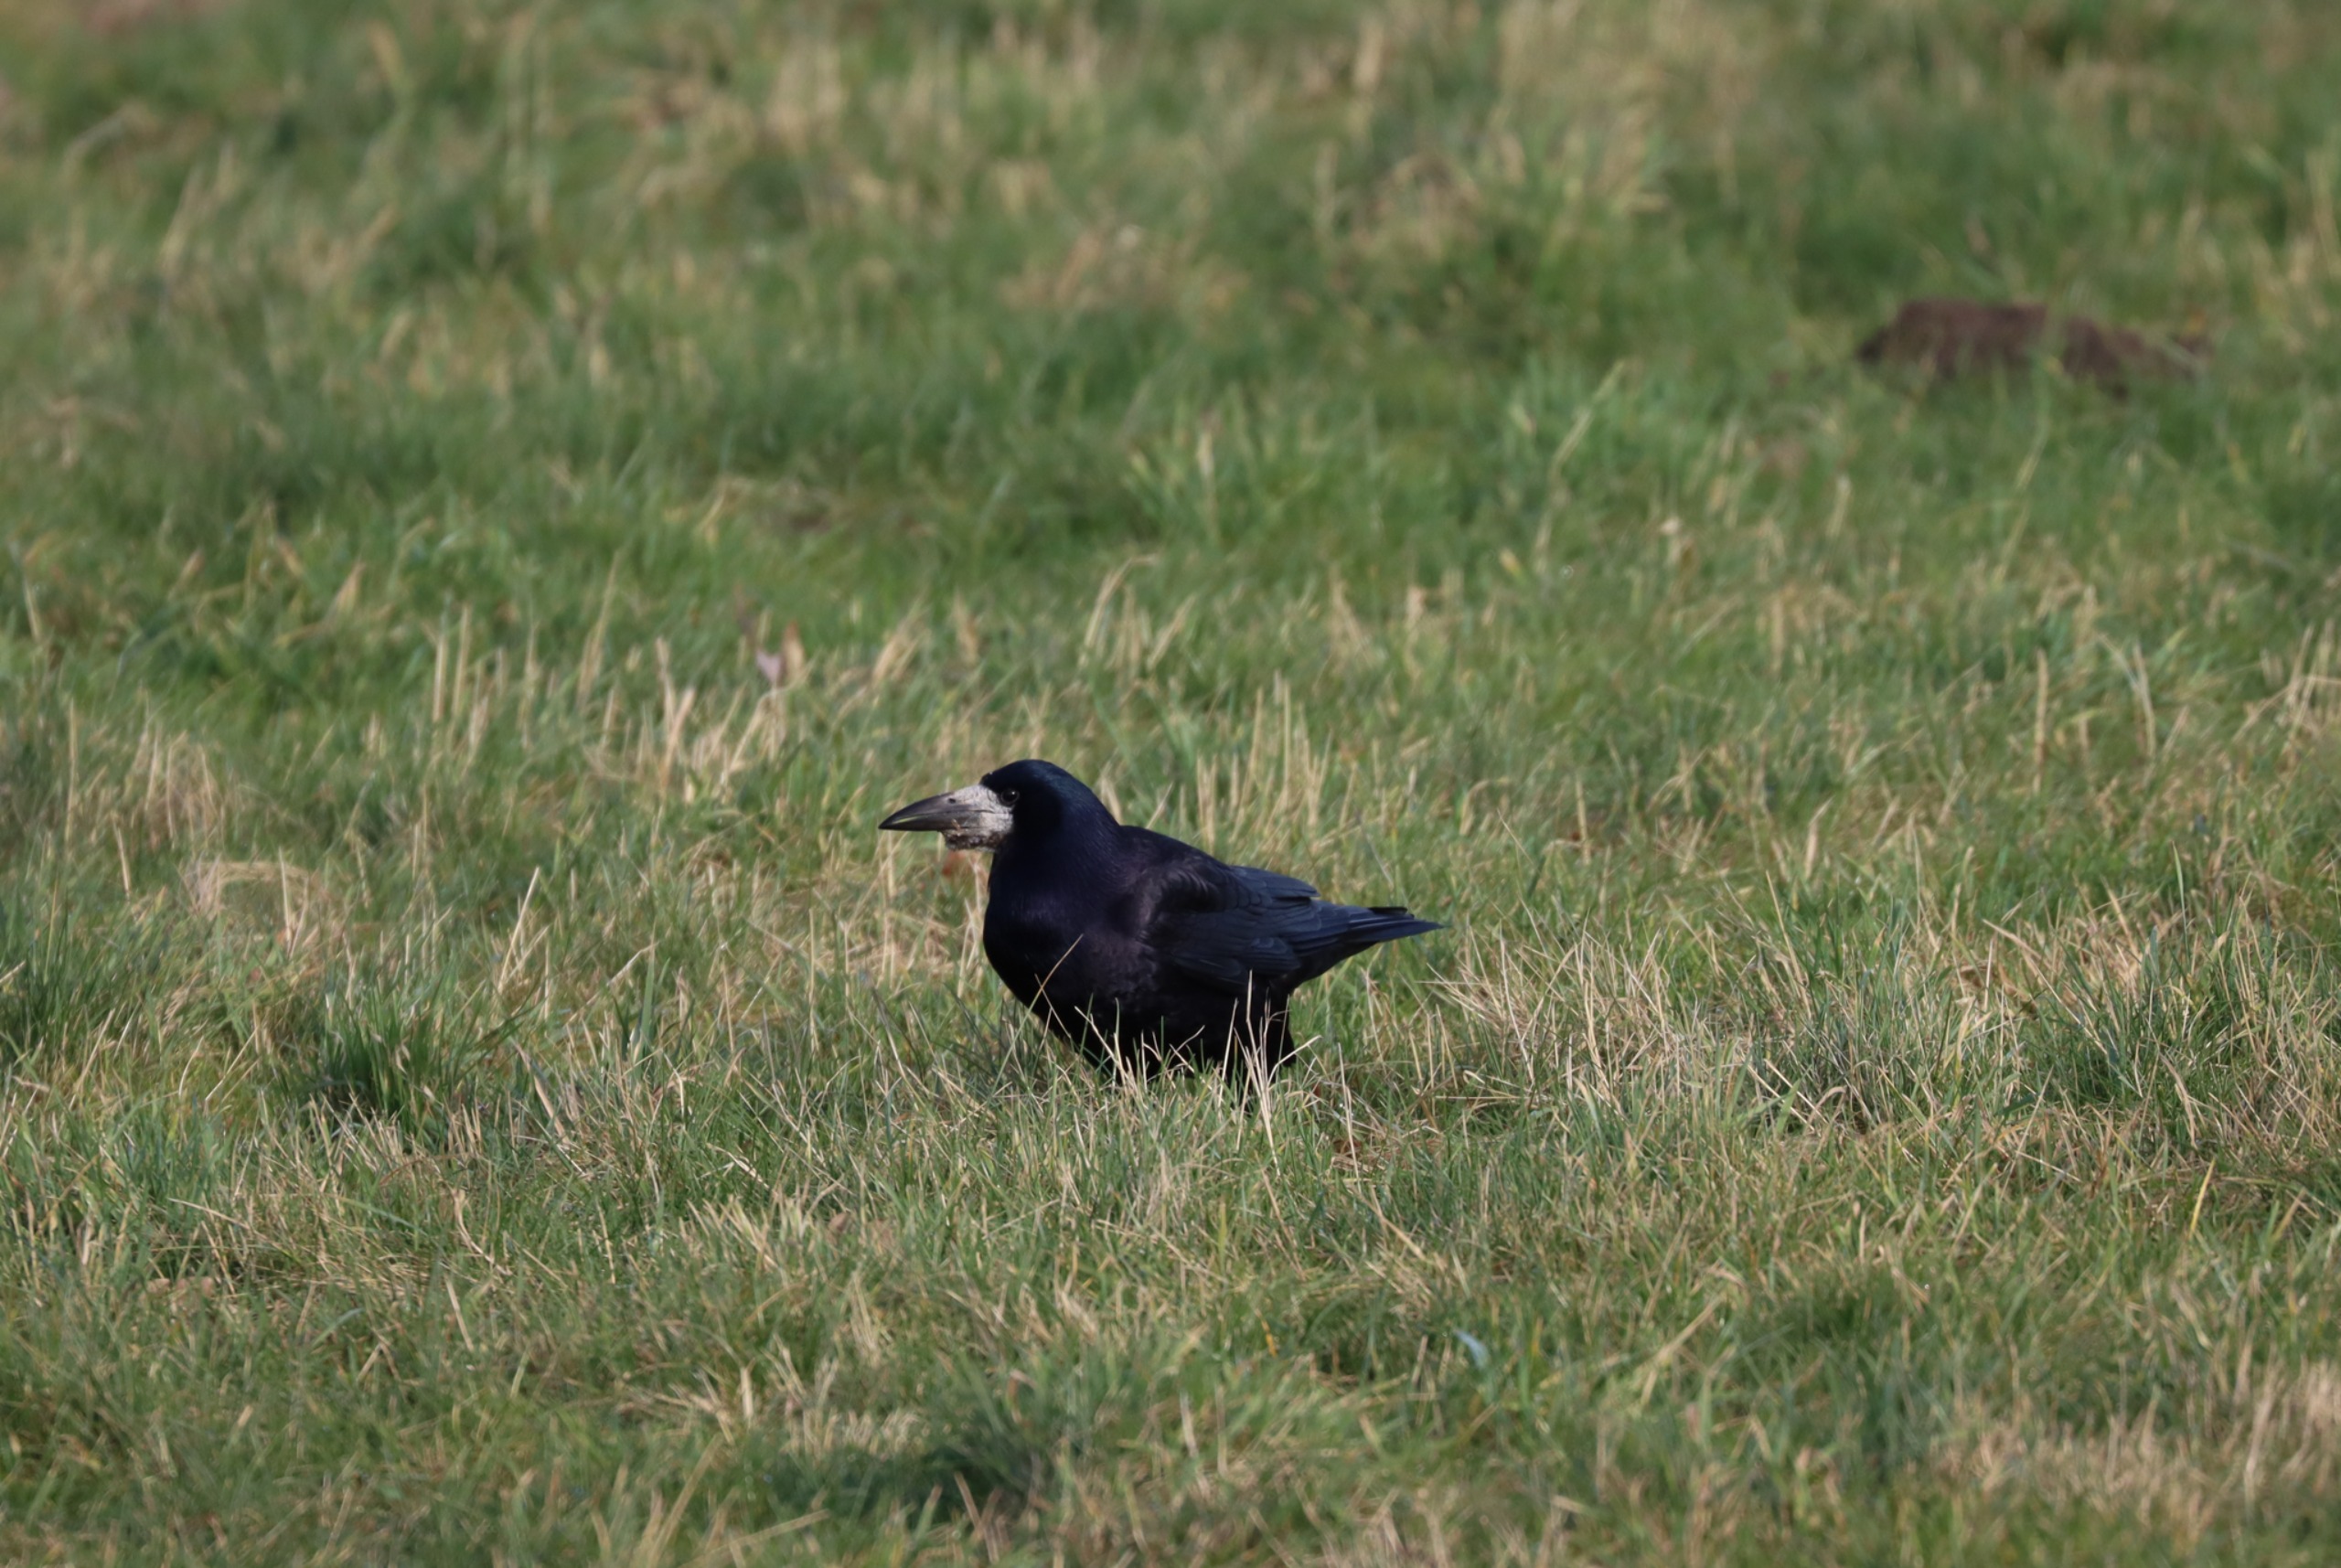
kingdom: Animalia
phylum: Chordata
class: Aves
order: Passeriformes
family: Corvidae
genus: Corvus
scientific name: Corvus frugilegus
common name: Råge
